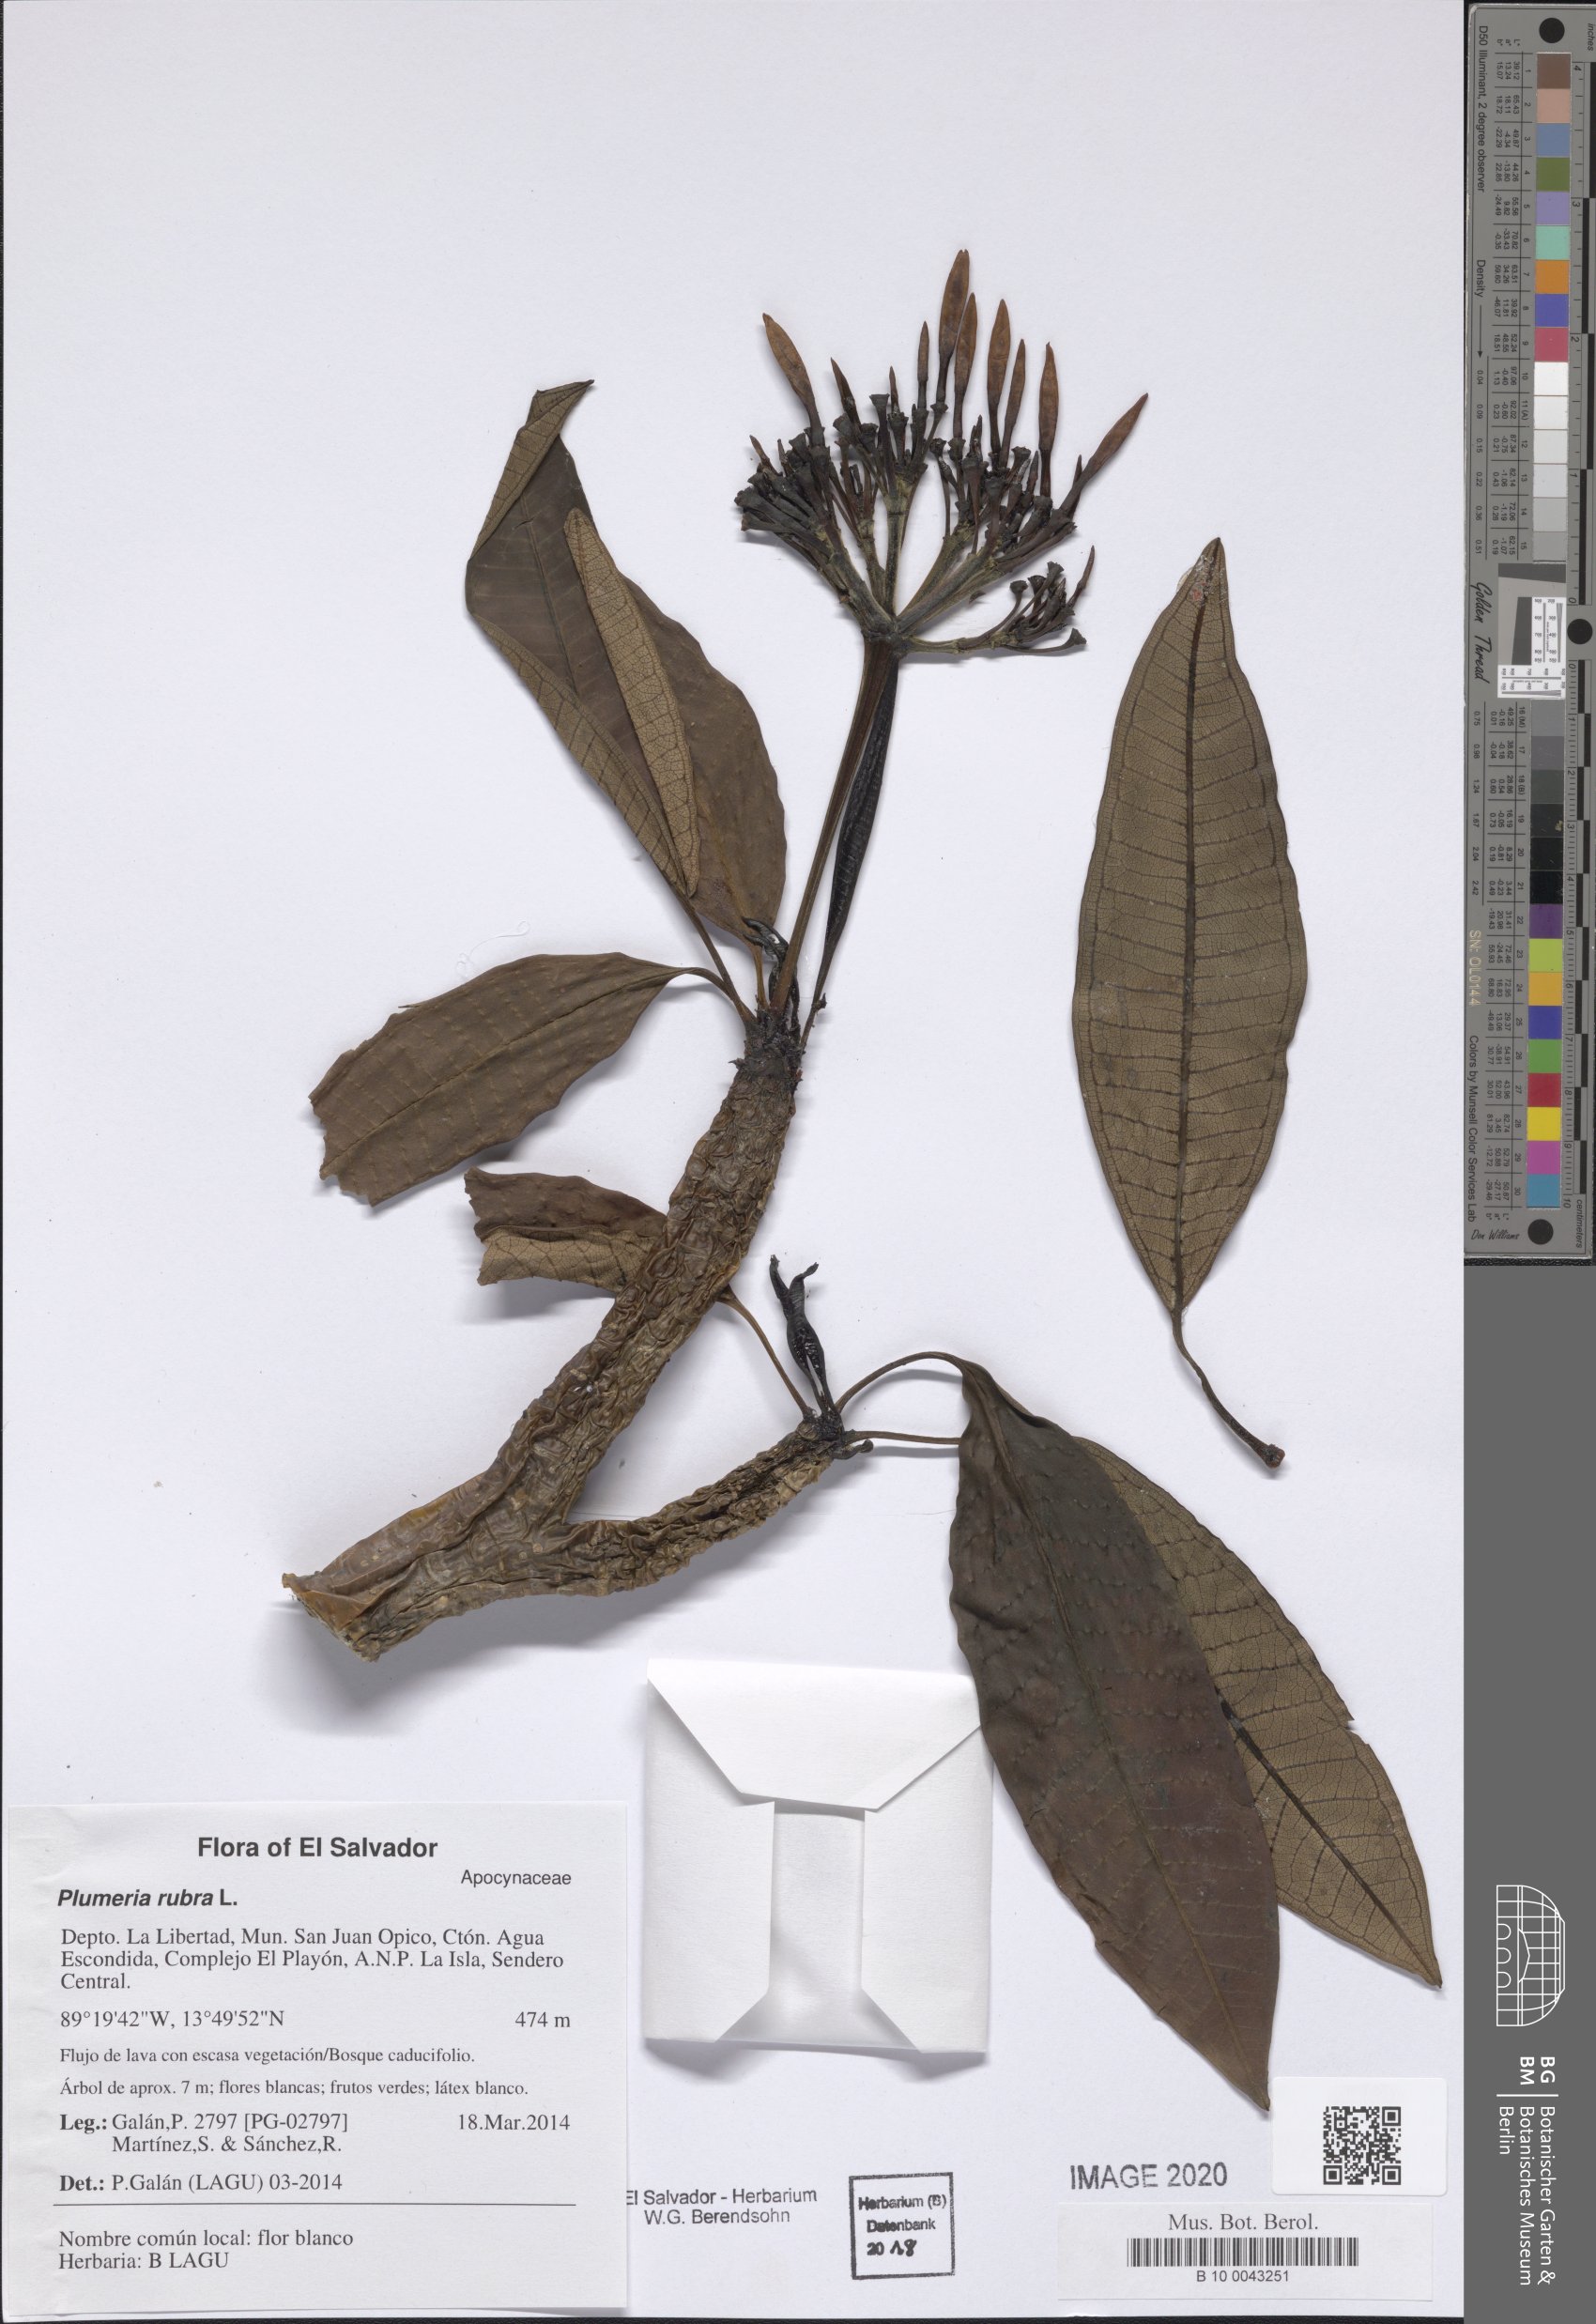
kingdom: Plantae
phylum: Tracheophyta
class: Magnoliopsida
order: Gentianales
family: Apocynaceae
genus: Plumeria
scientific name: Plumeria rubra
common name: Pagoda-tree
